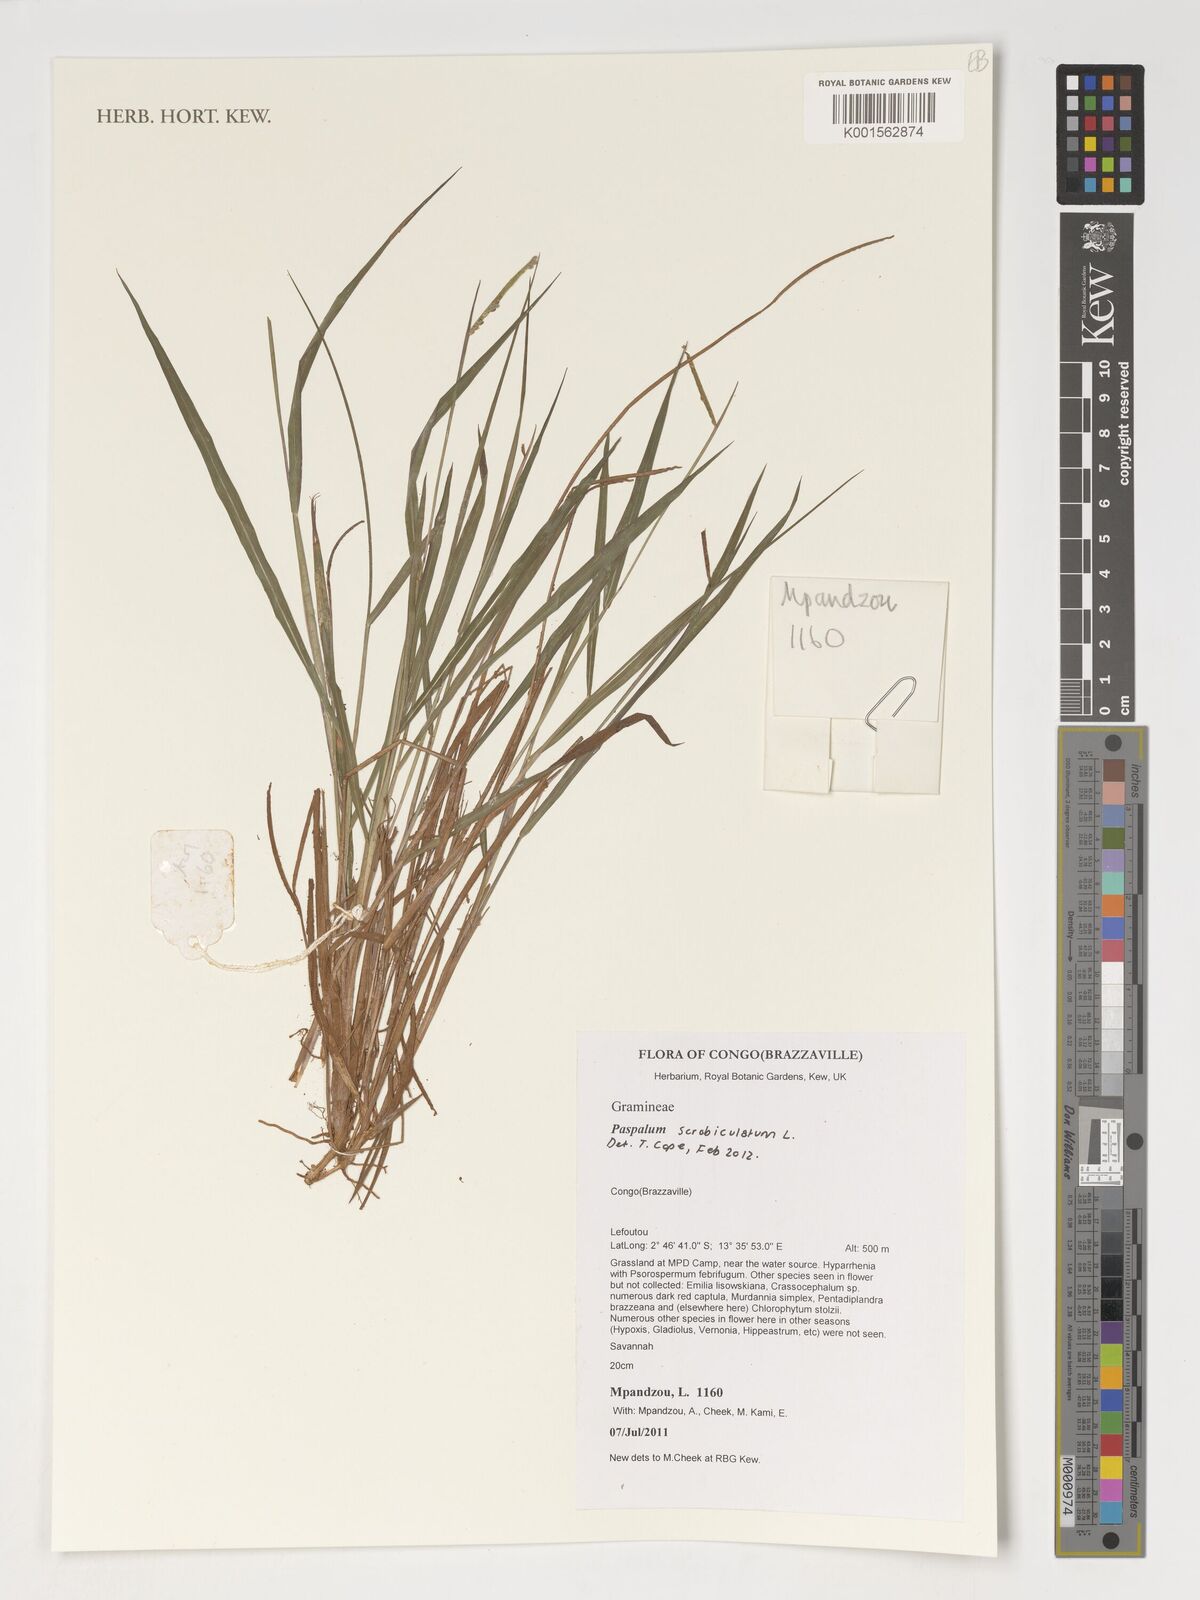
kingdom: Plantae
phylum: Tracheophyta
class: Liliopsida
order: Poales
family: Poaceae
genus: Paspalum
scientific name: Paspalum scrobiculatum
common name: Kodo millet
